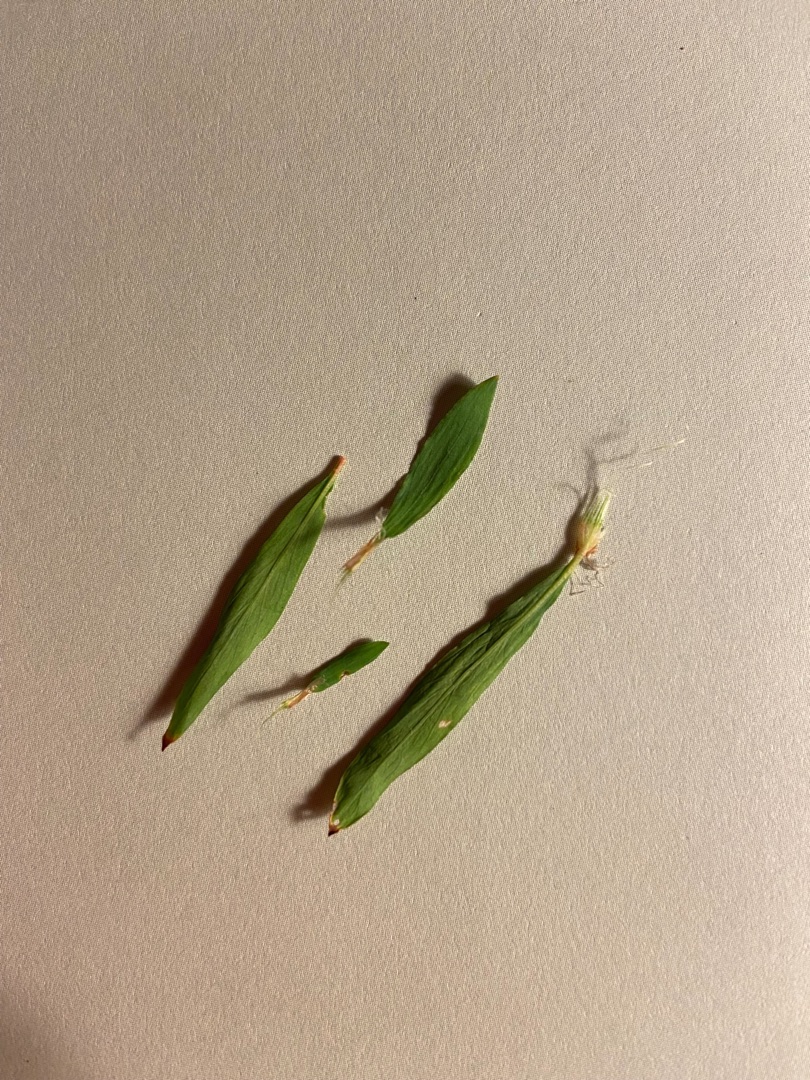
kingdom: Plantae
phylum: Tracheophyta
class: Magnoliopsida
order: Caryophyllales
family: Polygonaceae
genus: Polygonum
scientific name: Polygonum aviculare
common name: Spidsbladet vej-pileurt
